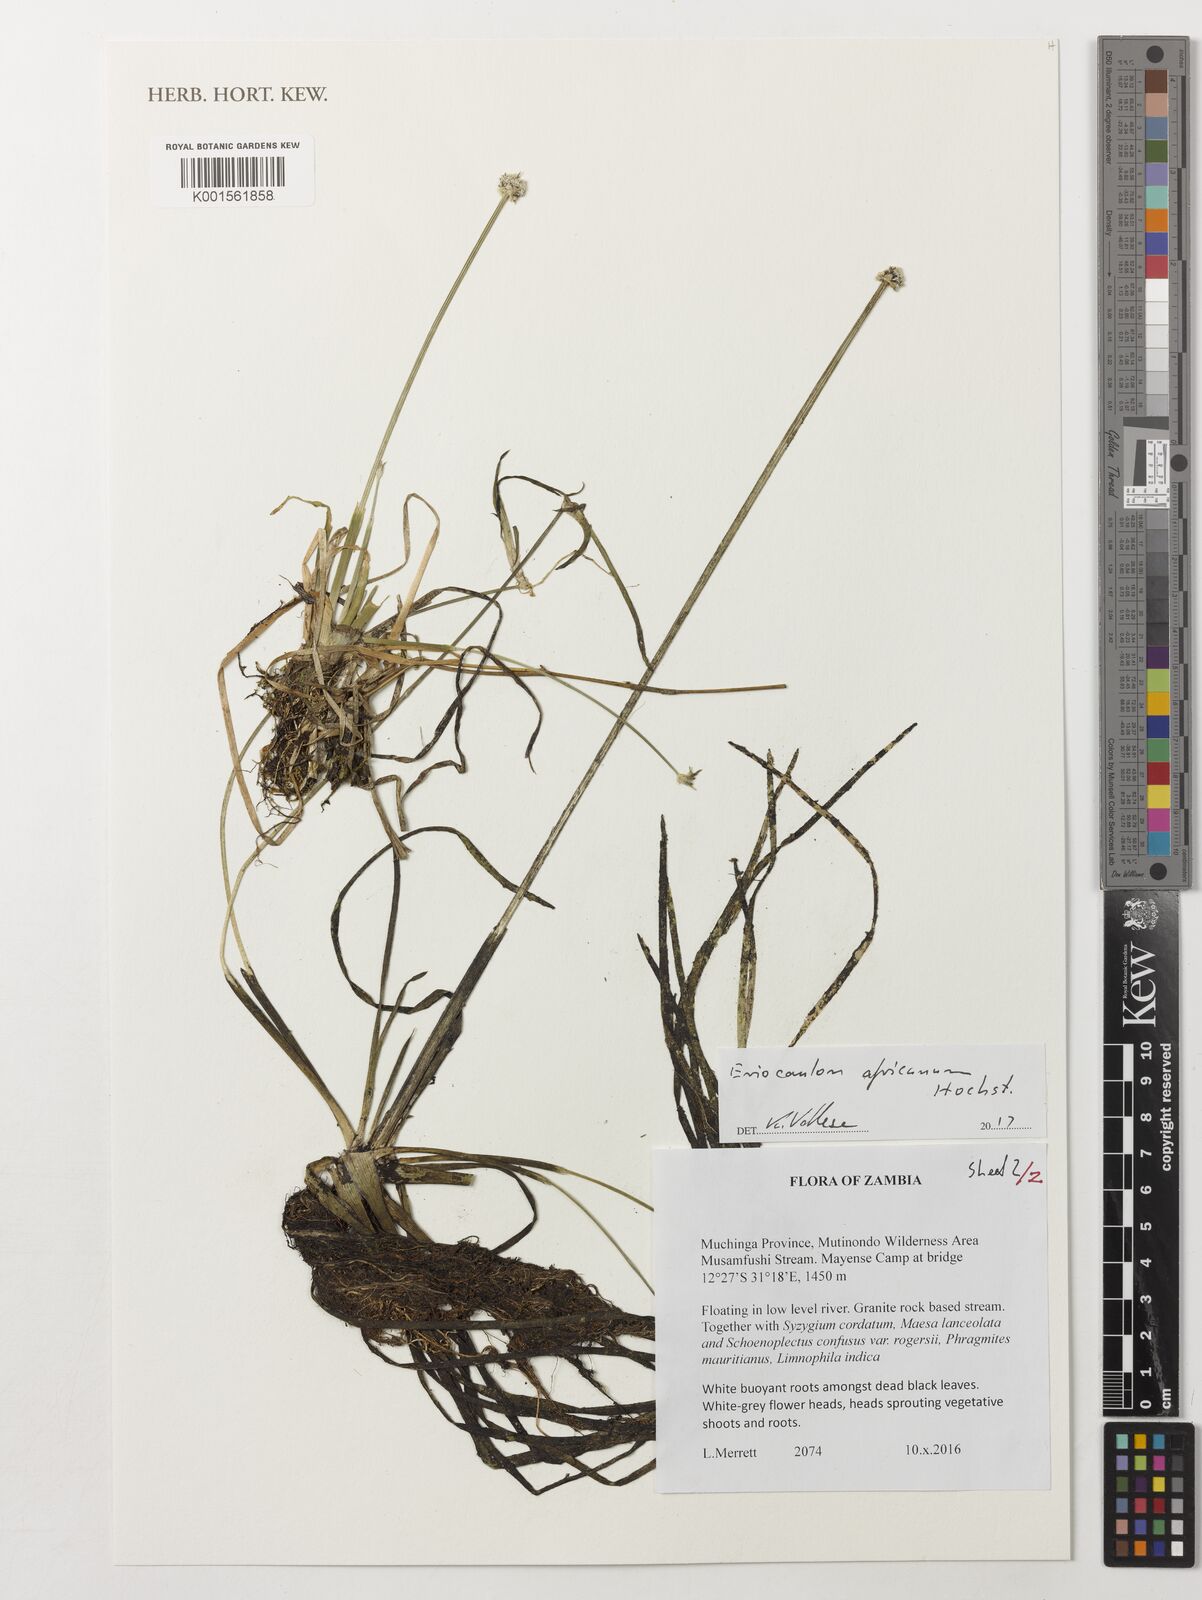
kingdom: Plantae
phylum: Tracheophyta
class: Liliopsida
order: Poales
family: Eriocaulaceae
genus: Eriocaulon
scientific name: Eriocaulon africanum
